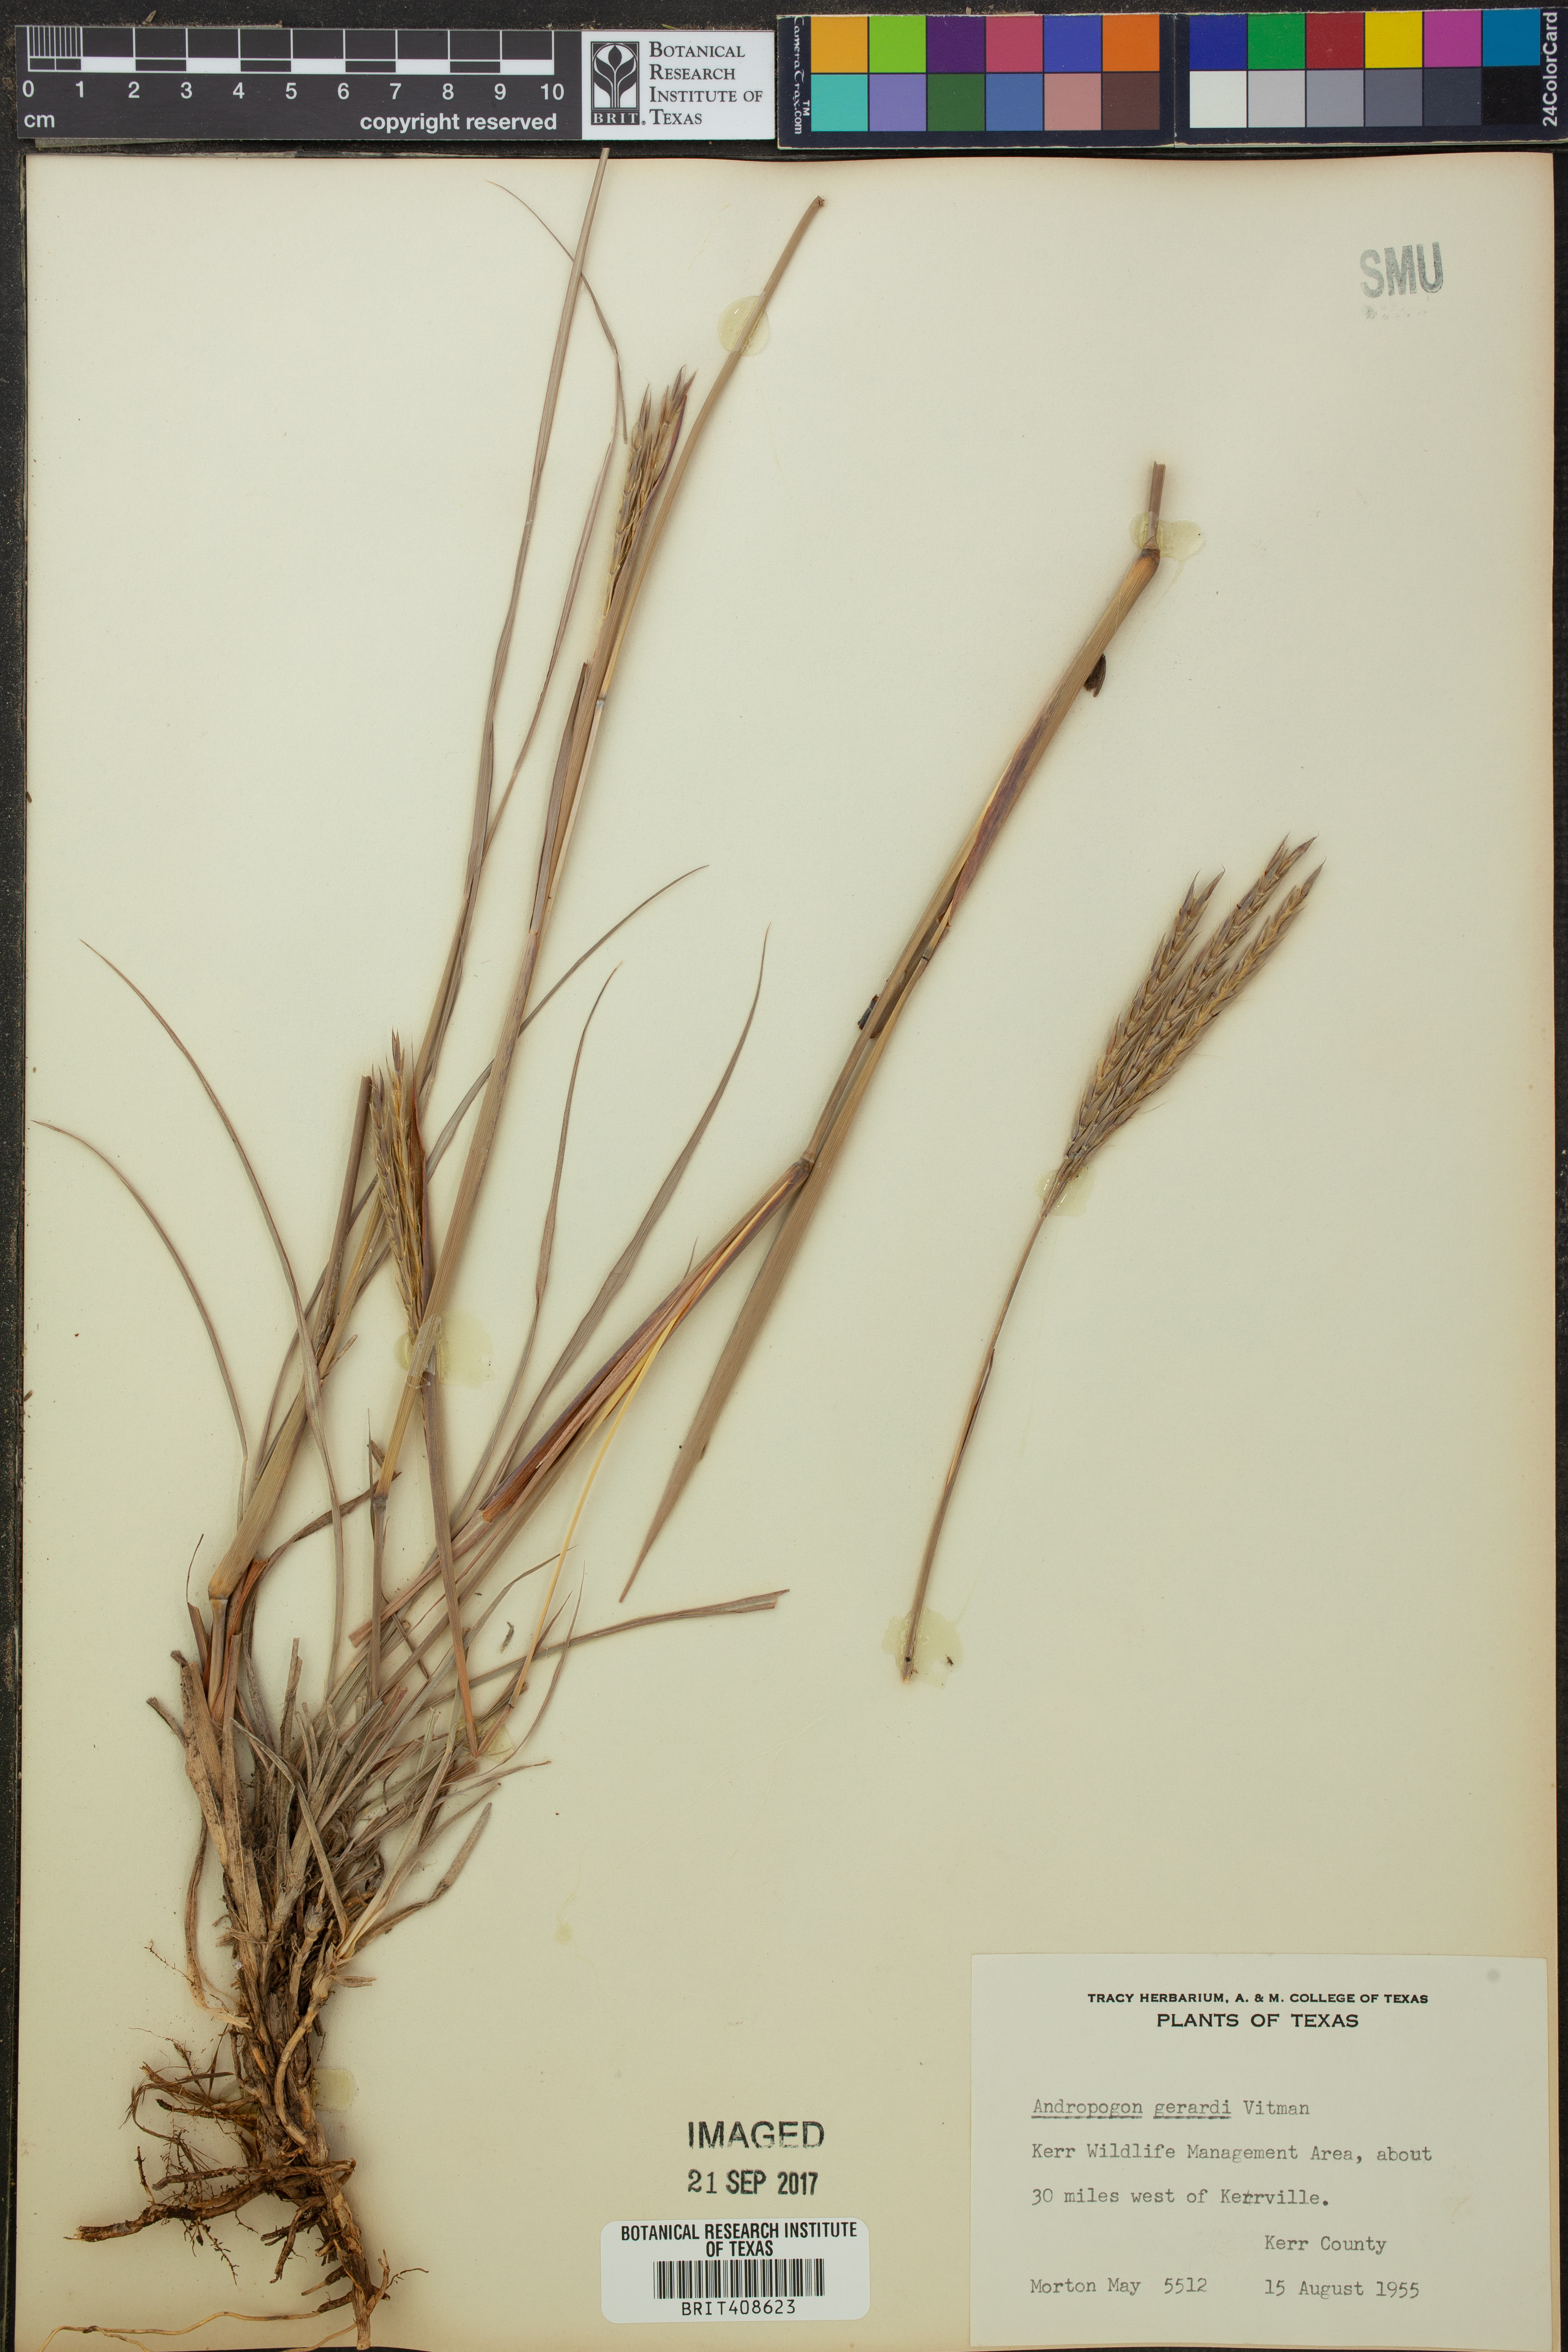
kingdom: Plantae
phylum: Tracheophyta
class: Liliopsida
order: Poales
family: Poaceae
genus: Andropogon
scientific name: Andropogon gerardi
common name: Big bluestem
